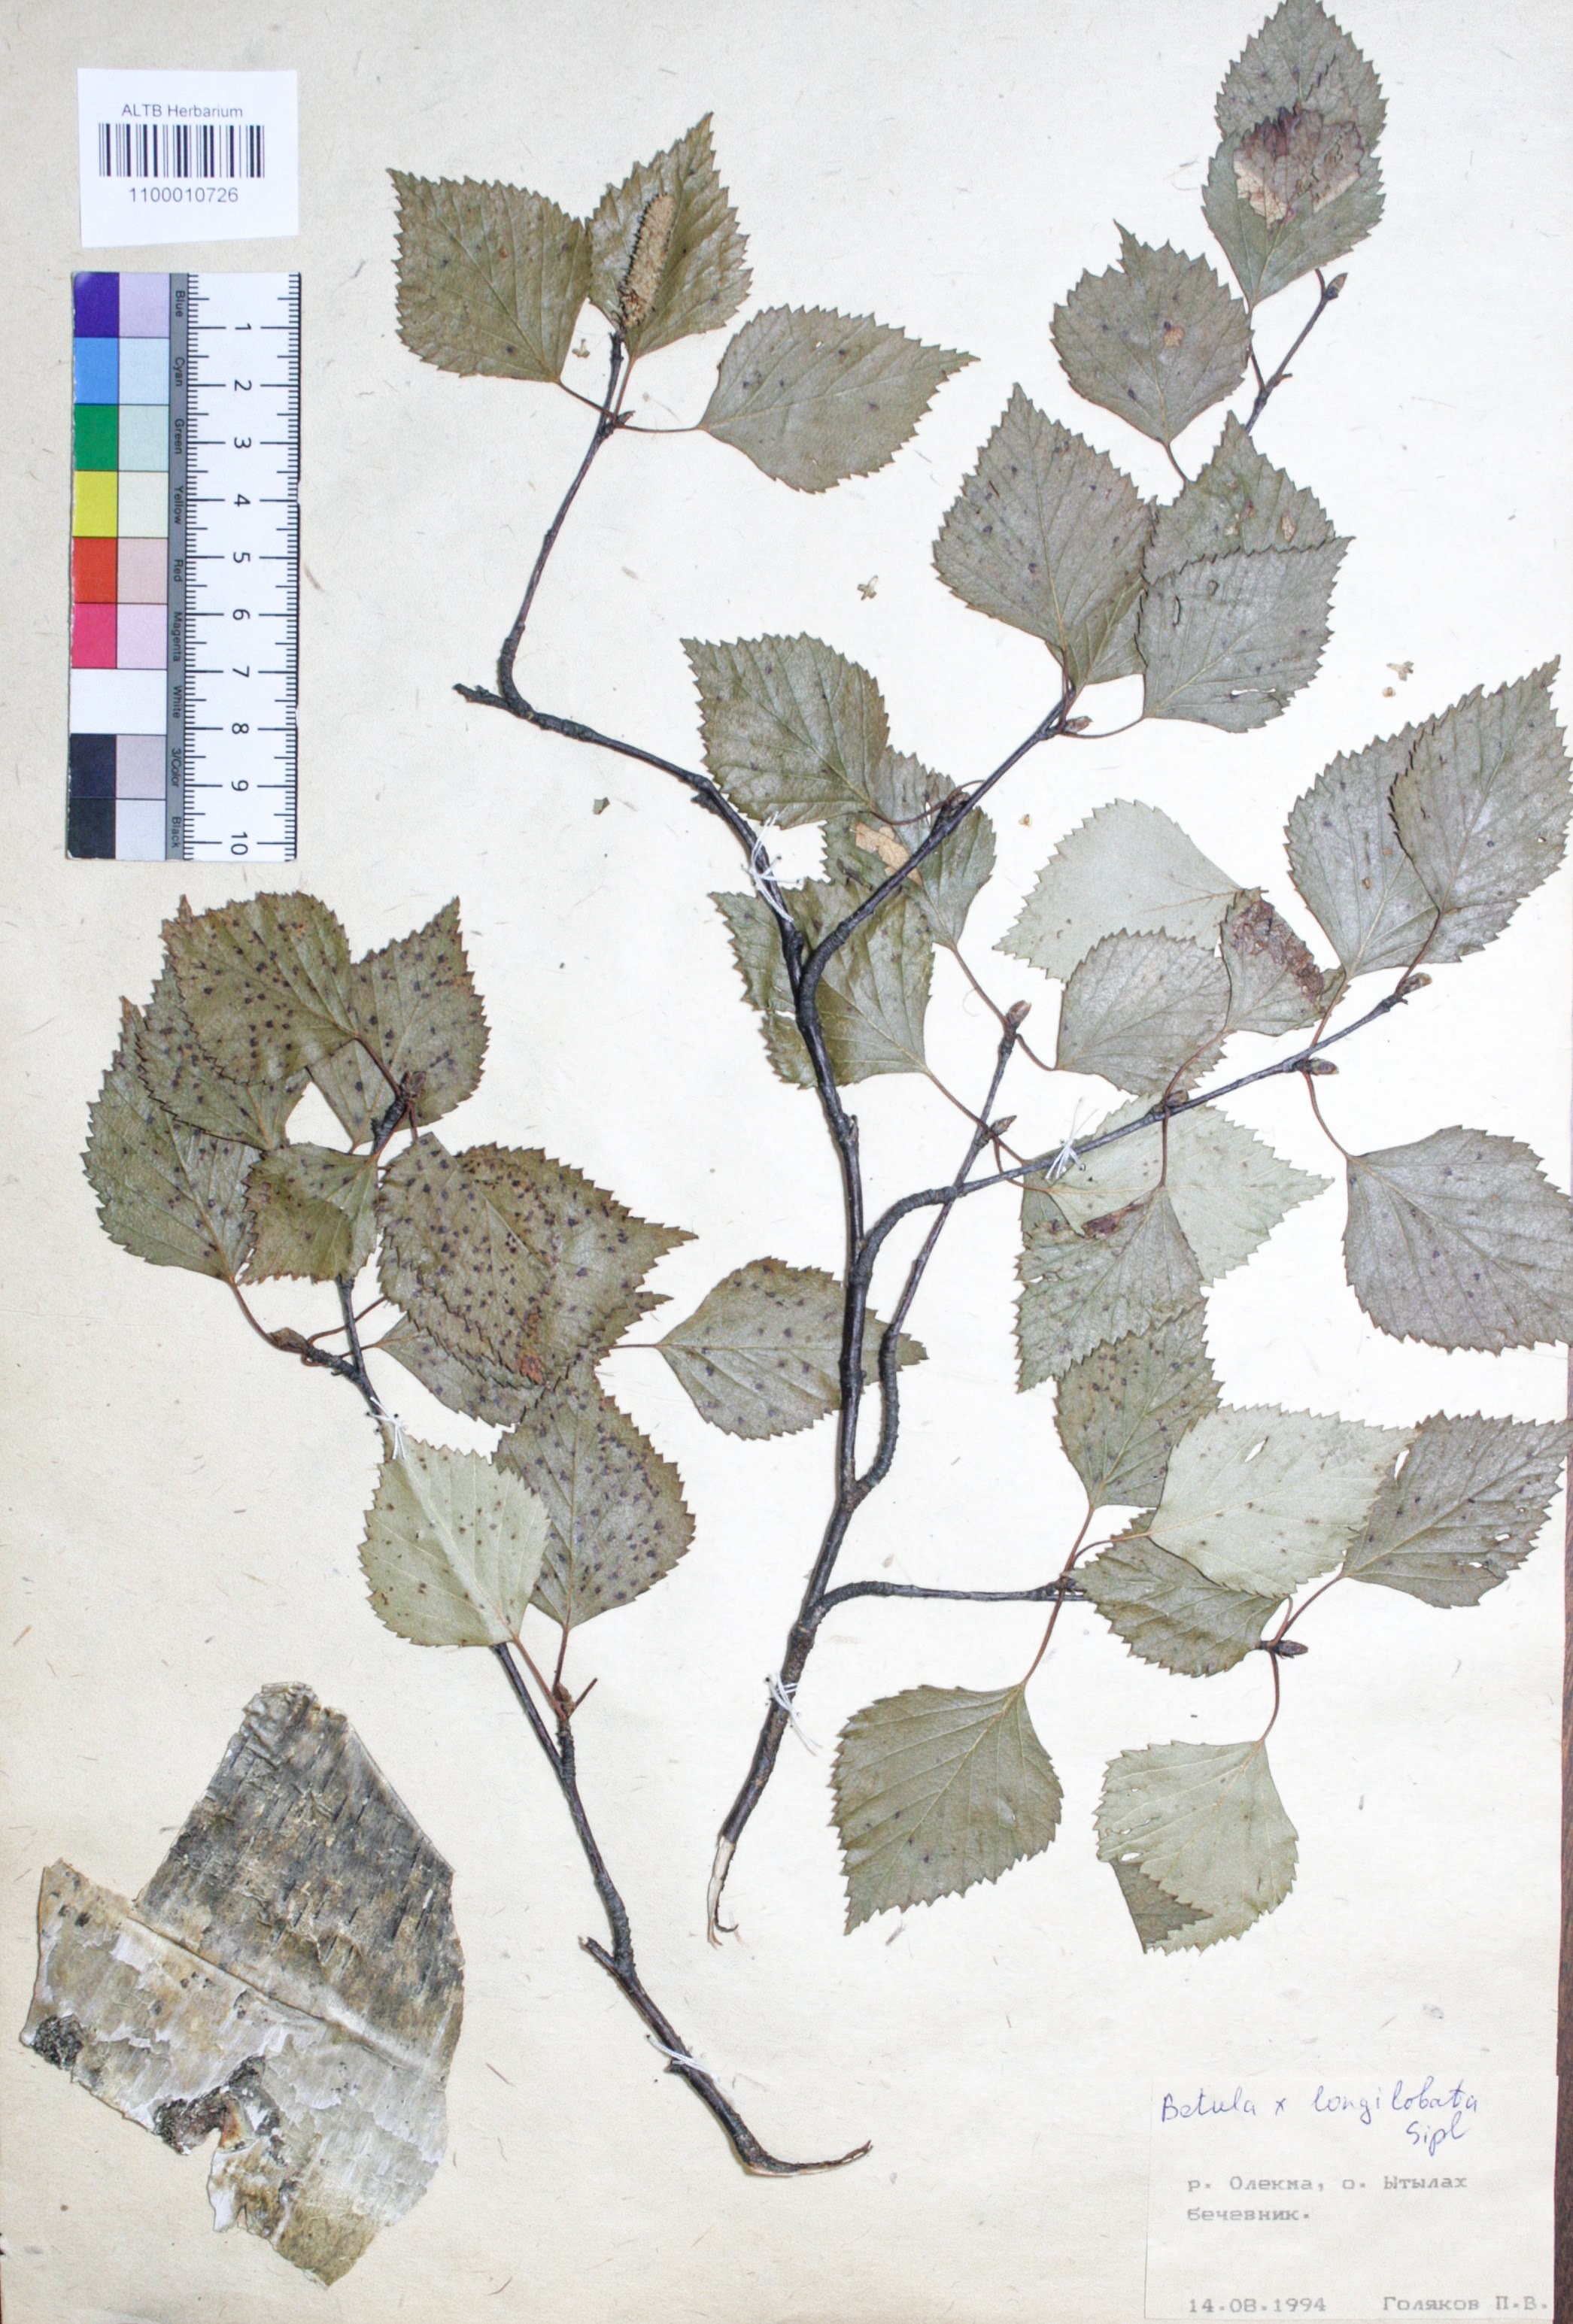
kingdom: Plantae
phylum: Tracheophyta
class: Magnoliopsida
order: Fagales
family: Betulaceae
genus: Betula
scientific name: Betula ermanii
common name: Erman's birch
